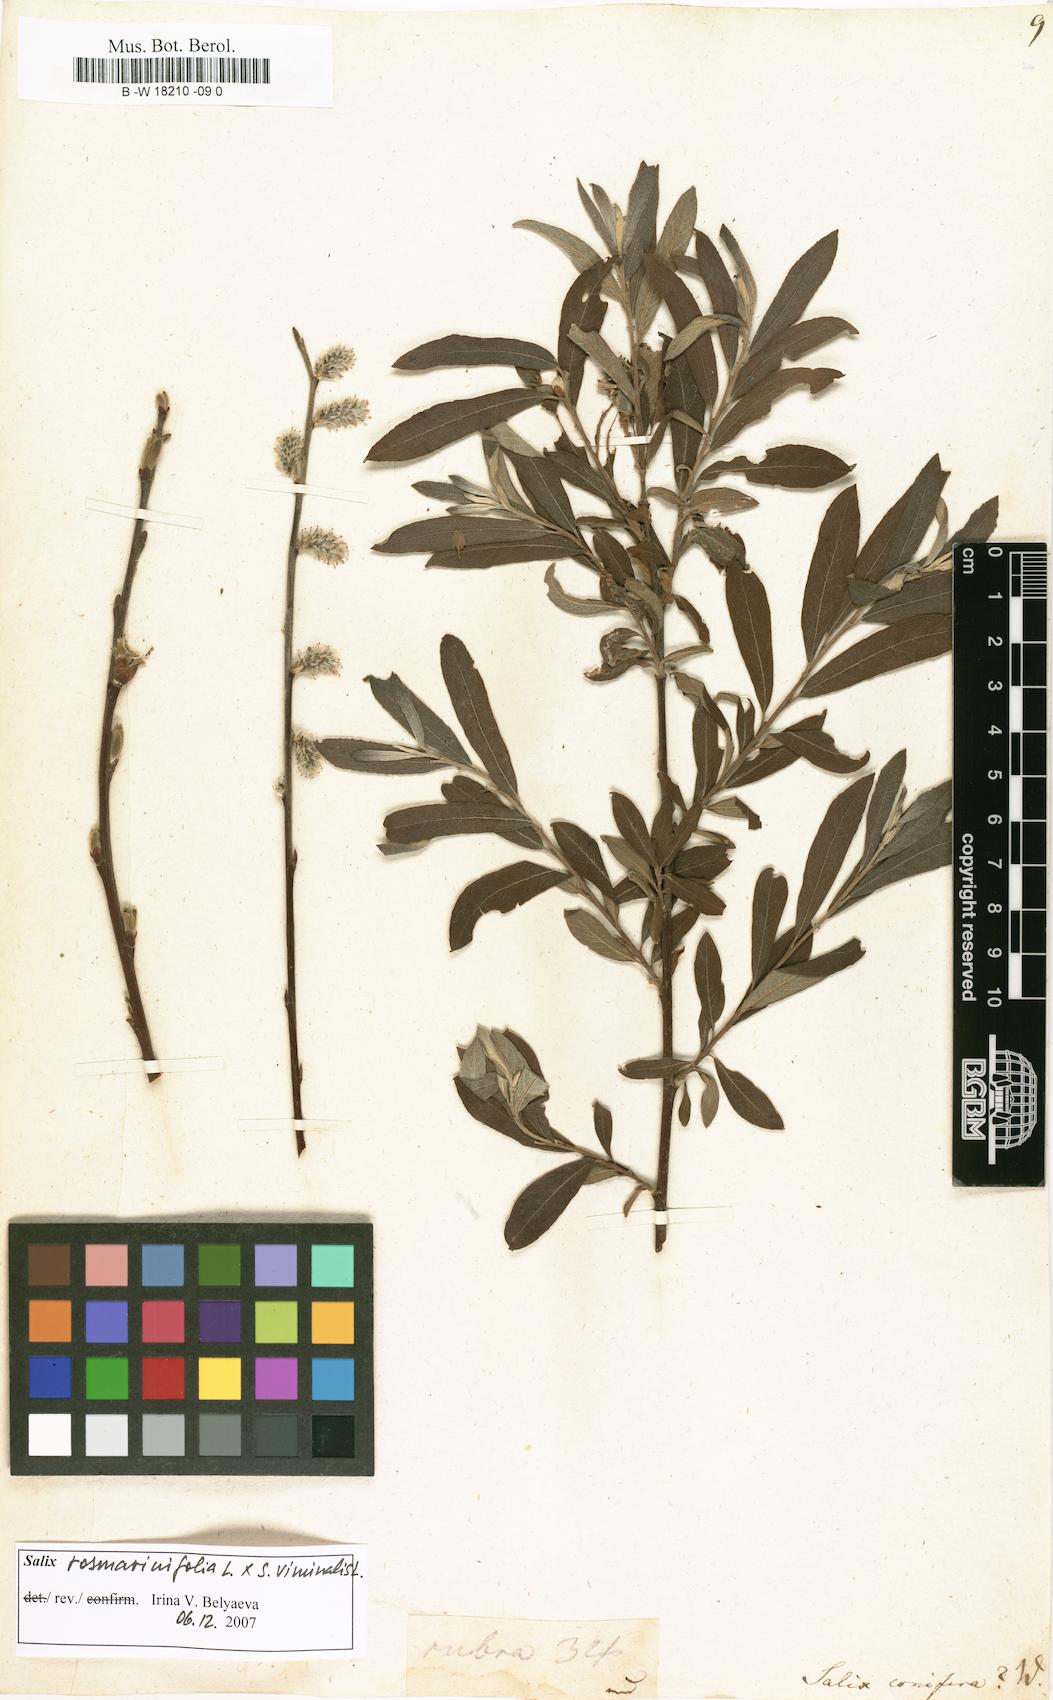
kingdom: Plantae
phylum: Tracheophyta
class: Magnoliopsida
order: Malpighiales
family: Salicaceae
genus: Salix
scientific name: Salix conifera
